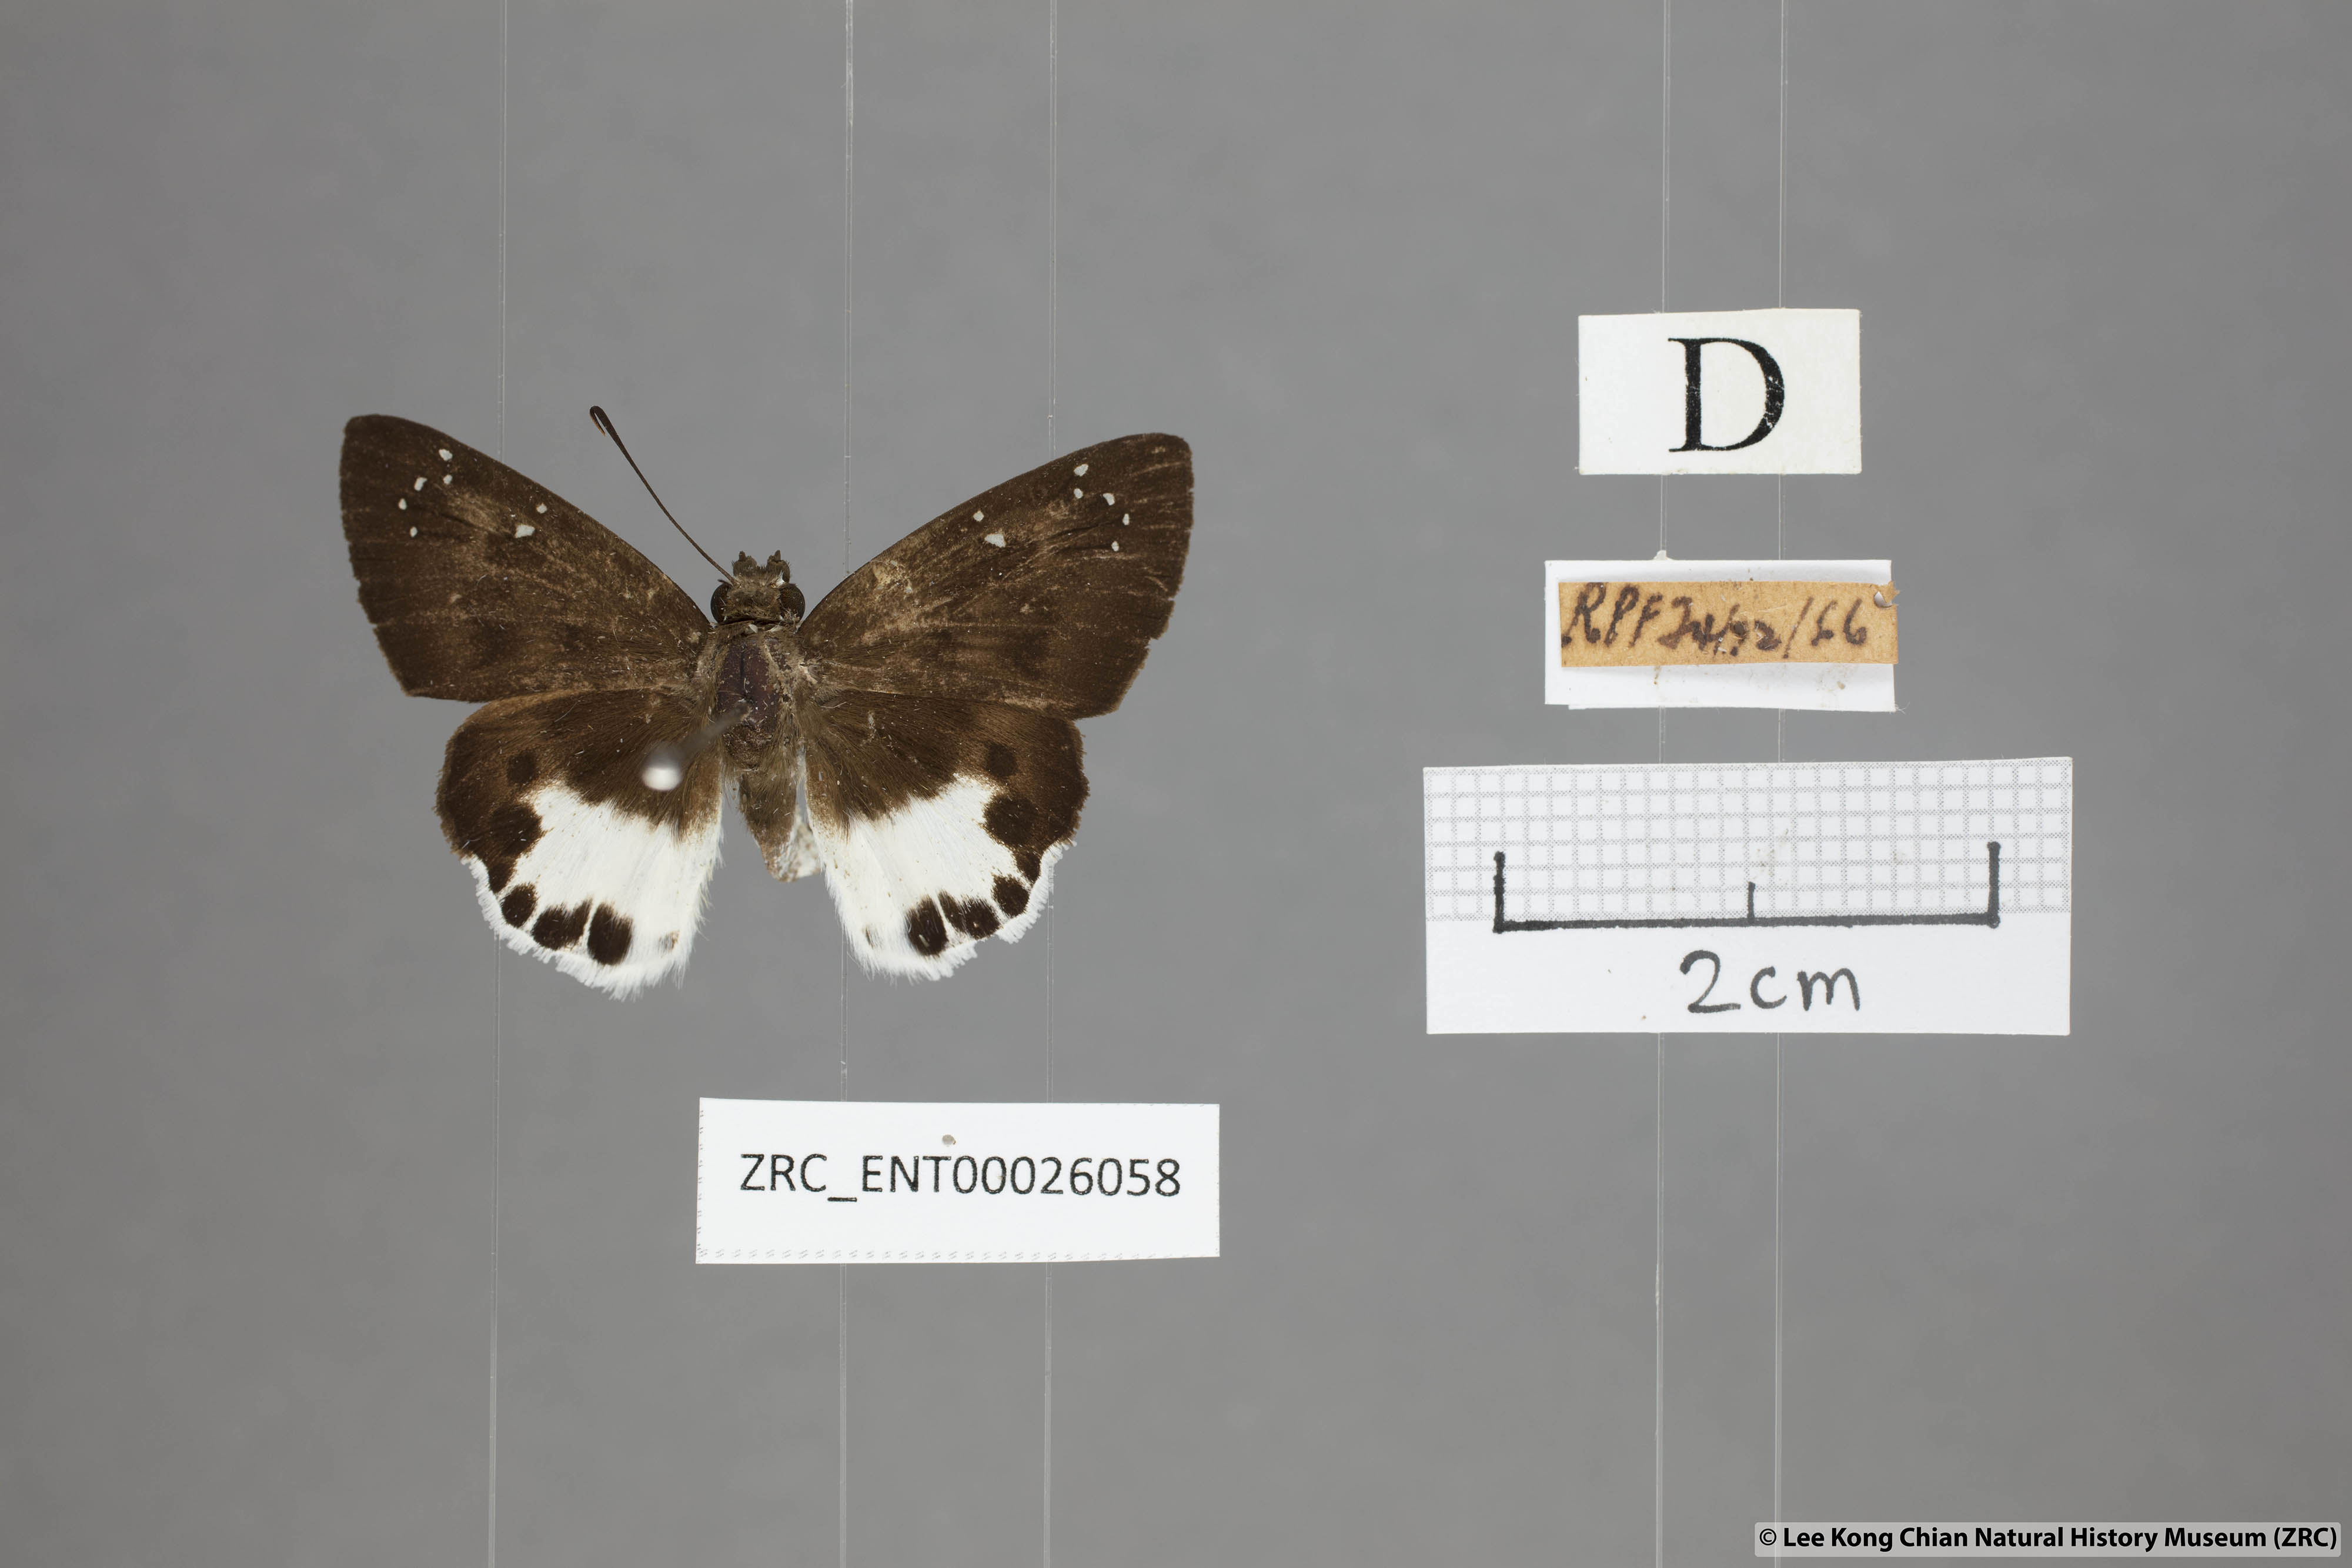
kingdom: Animalia
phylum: Arthropoda
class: Insecta
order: Lepidoptera
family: Hesperiidae
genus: Tagiades
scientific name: Tagiades litigiosa
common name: Water snow flat
